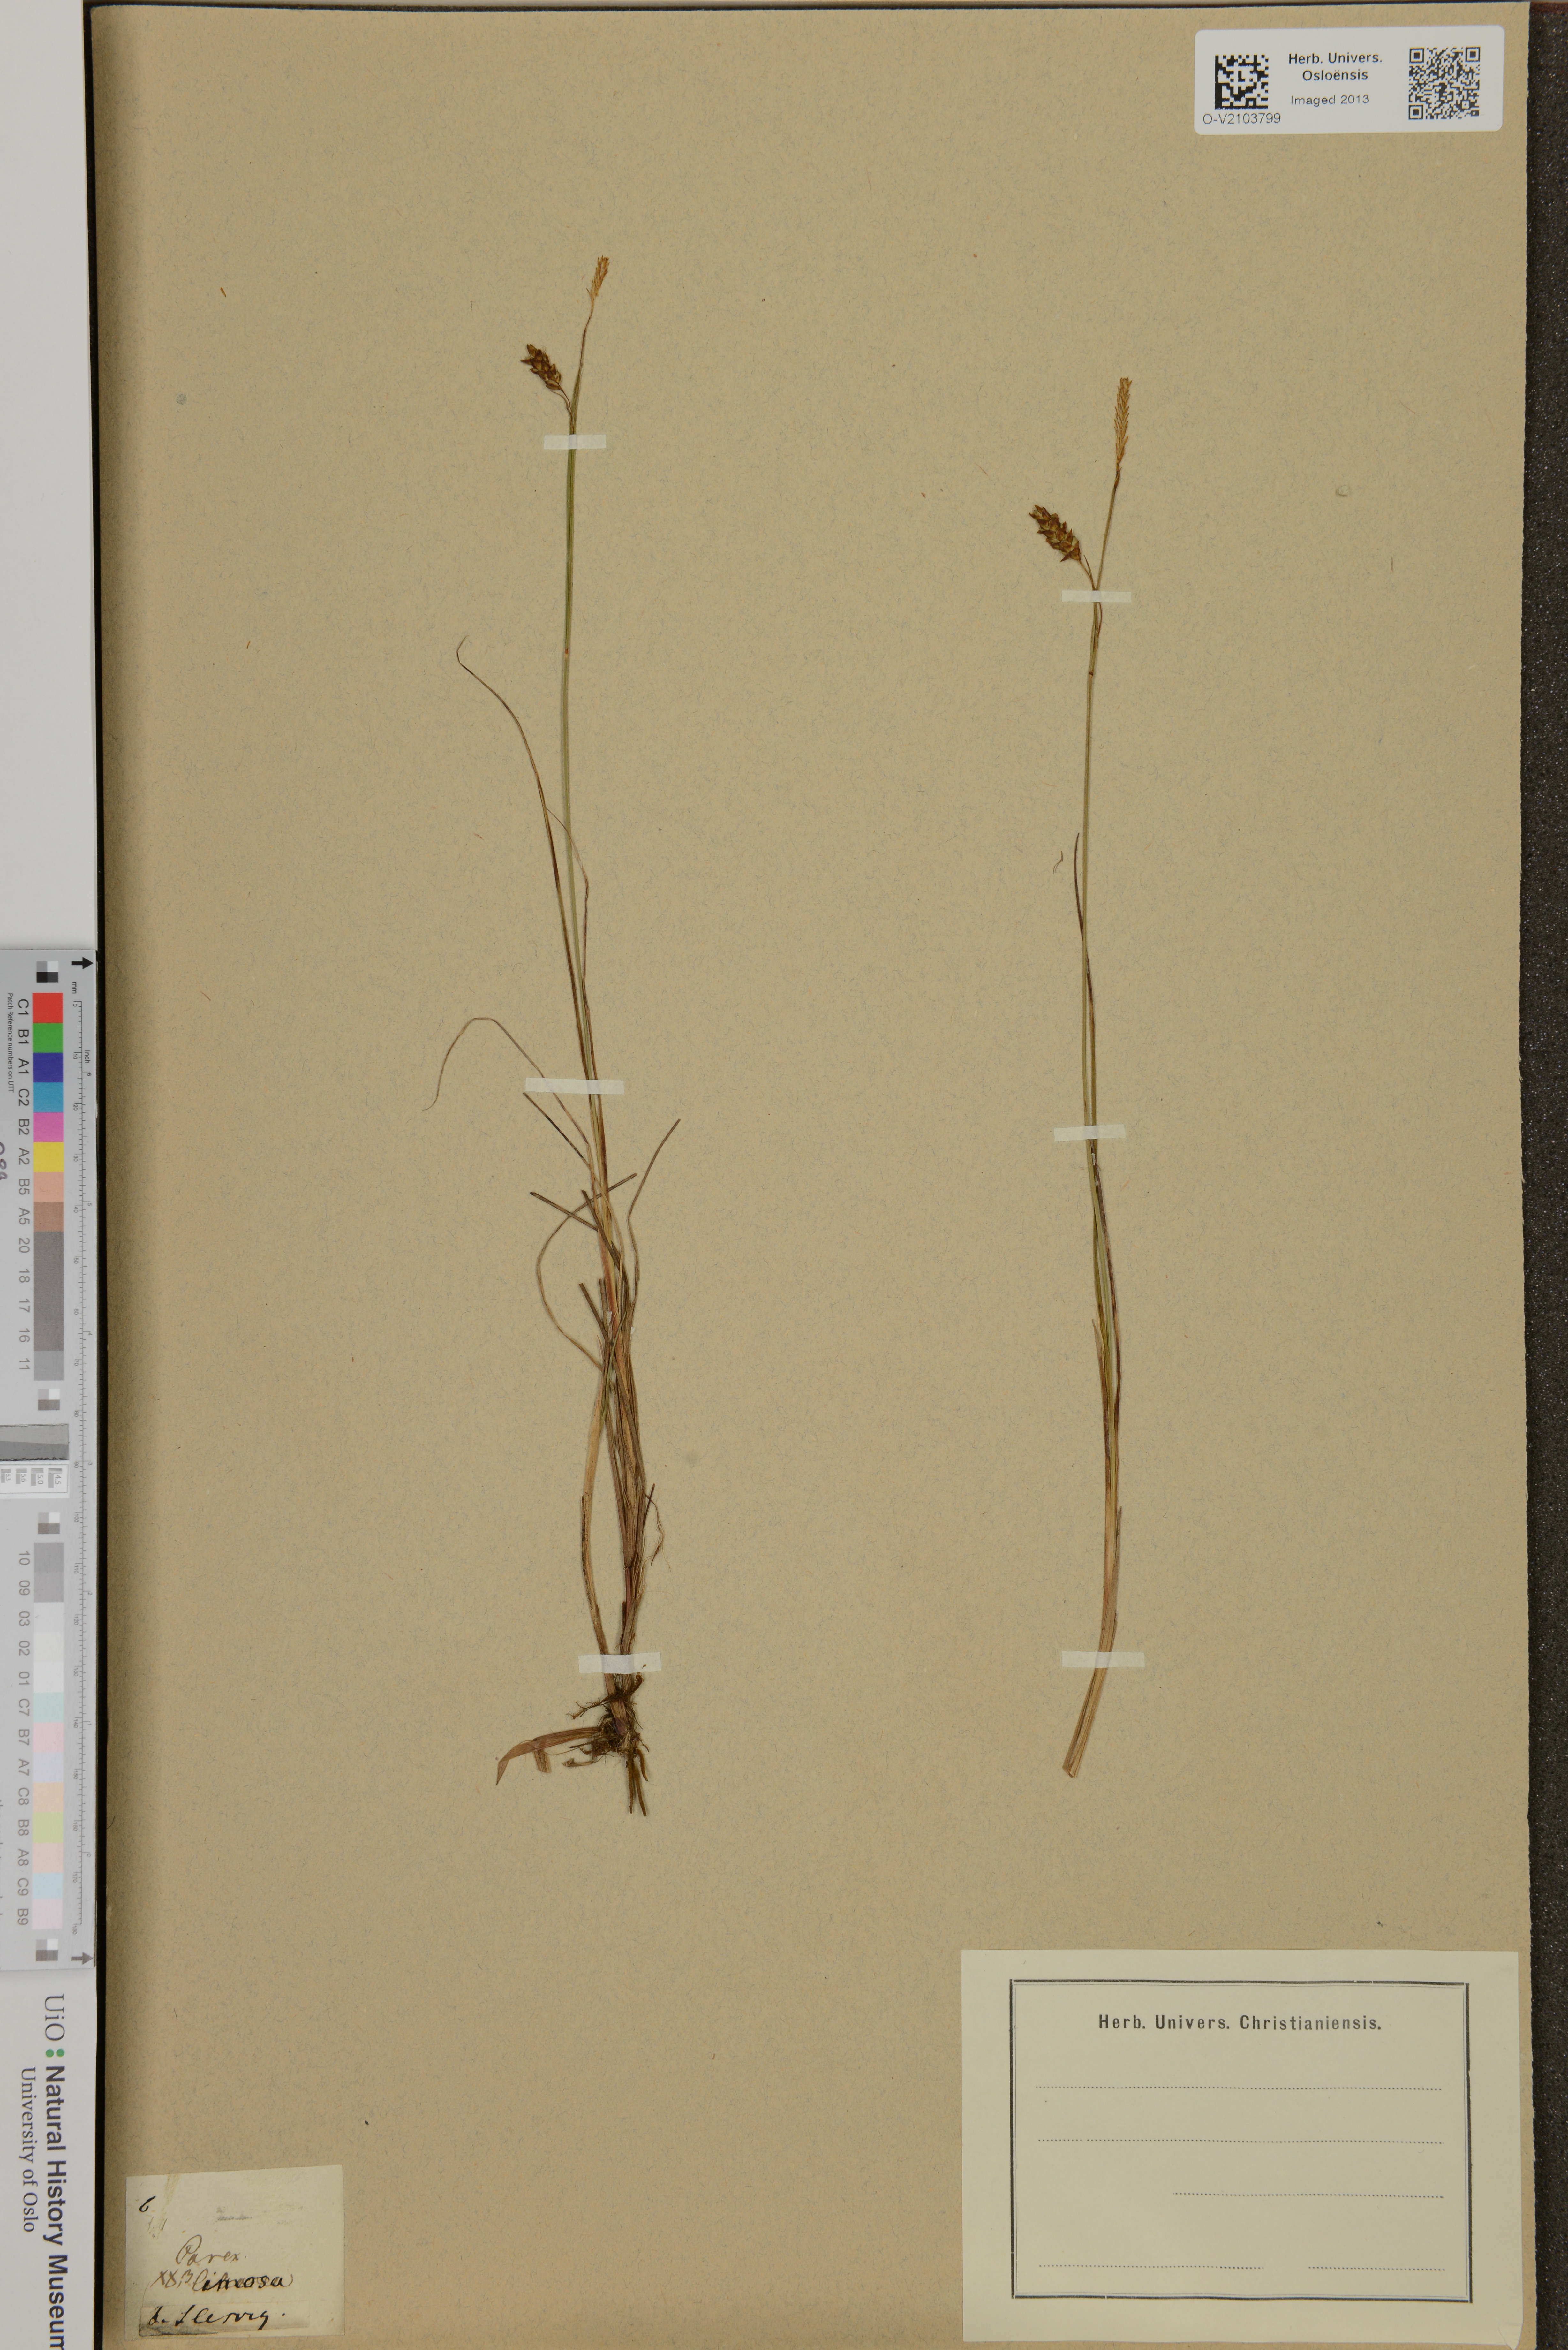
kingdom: Plantae
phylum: Tracheophyta
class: Liliopsida
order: Poales
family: Cyperaceae
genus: Carex
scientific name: Carex limosa
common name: Bog sedge
